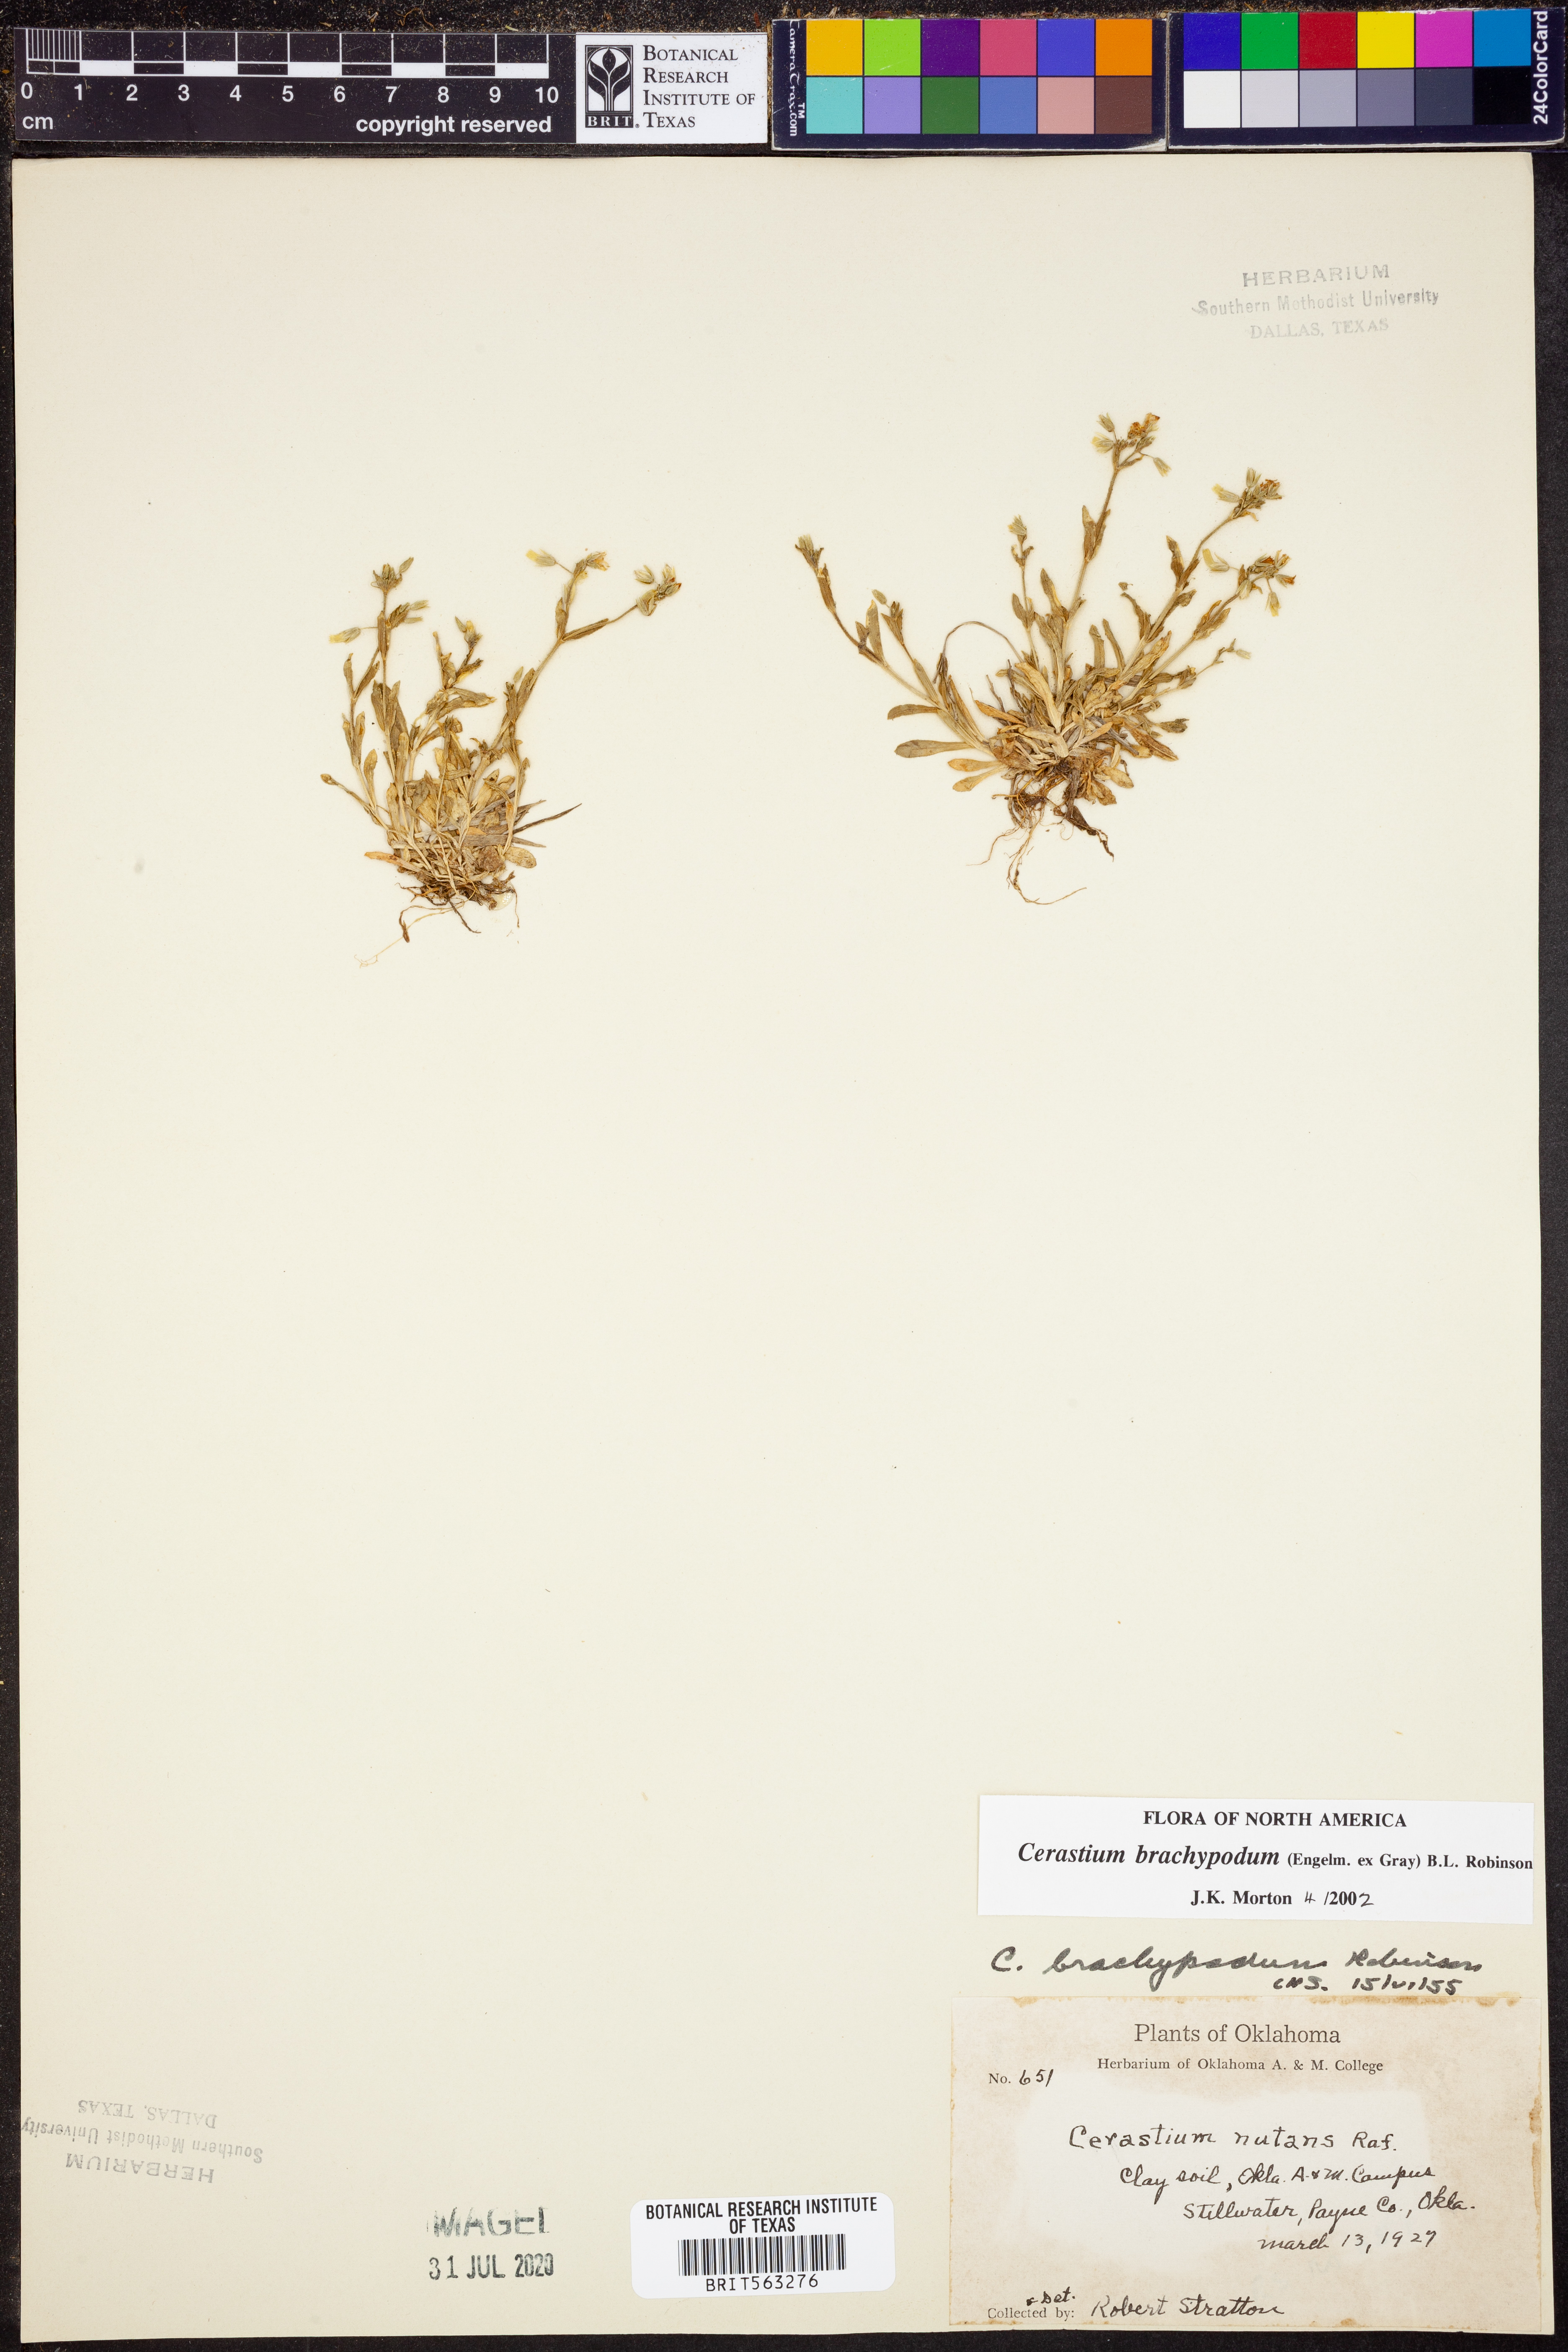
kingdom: Plantae
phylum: Tracheophyta
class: Magnoliopsida
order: Caryophyllales
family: Caryophyllaceae
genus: Cerastium
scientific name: Cerastium brachypodum
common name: Short-pedicelled nodding chickweed
